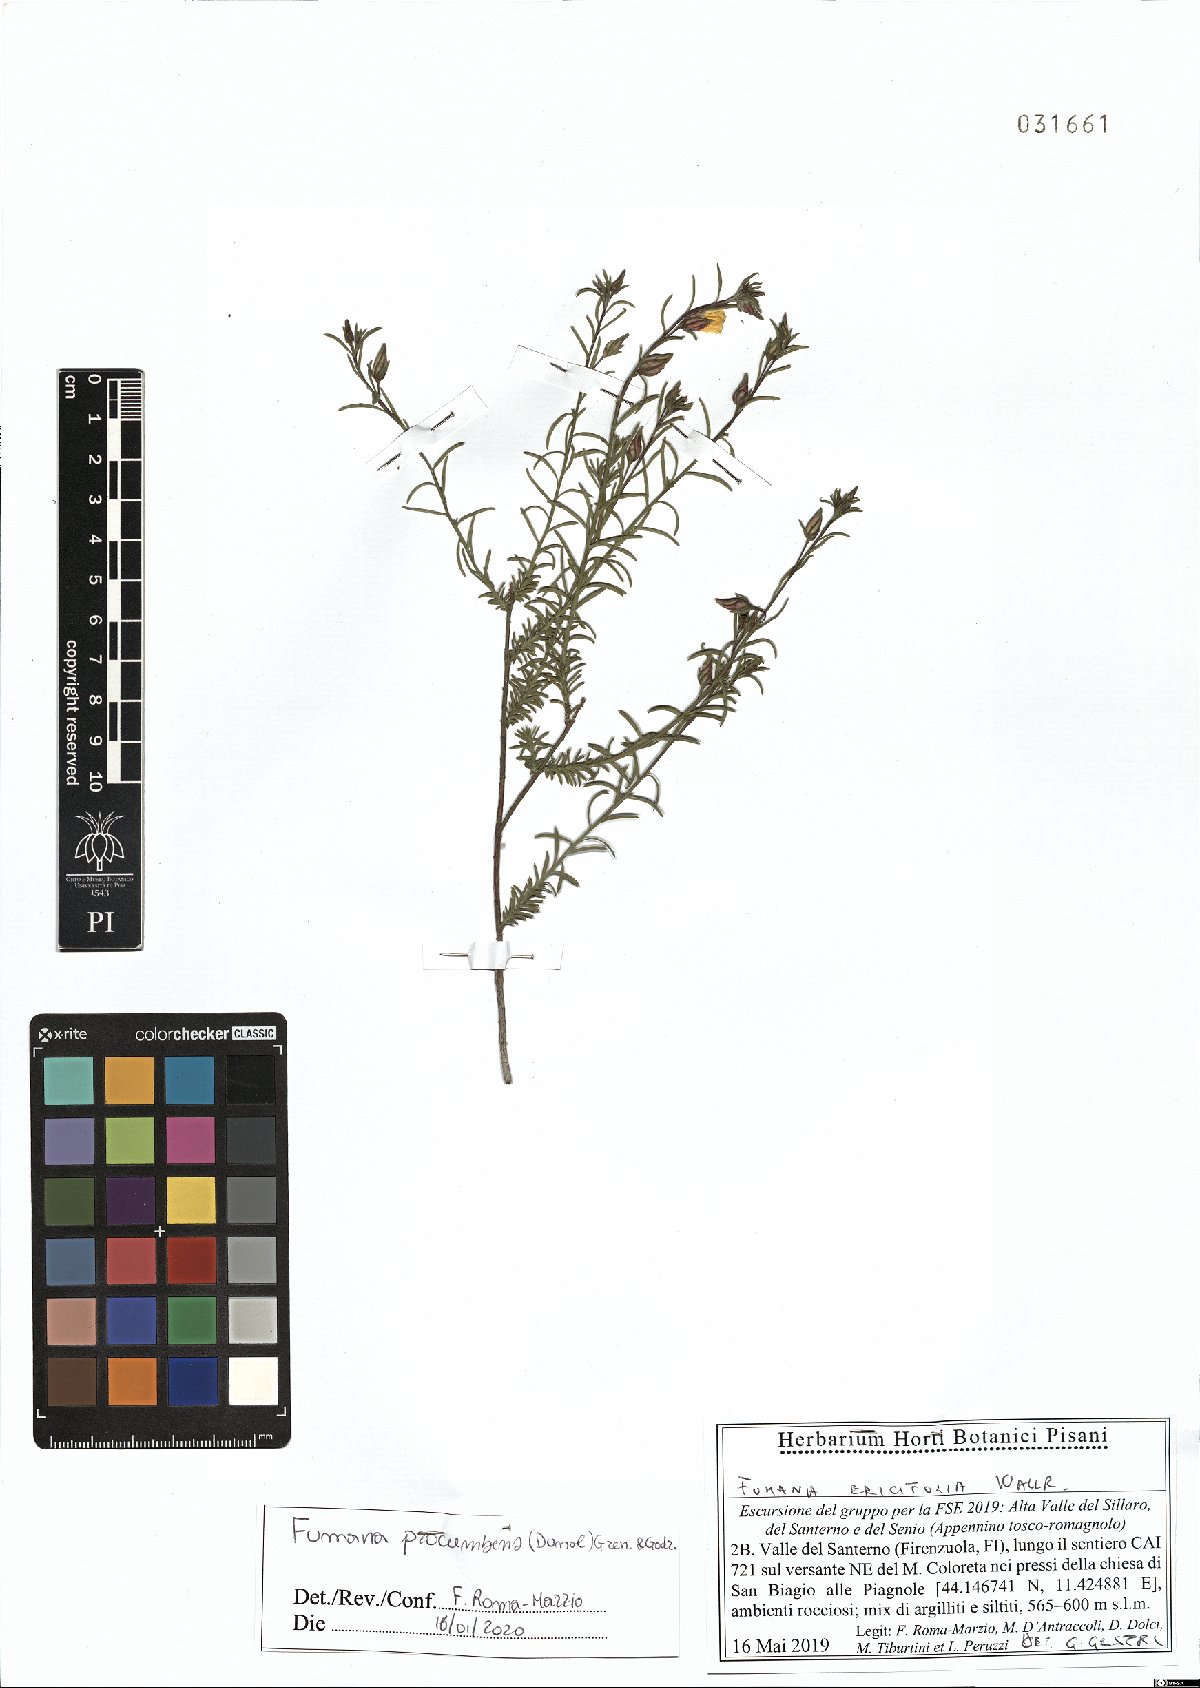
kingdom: Plantae
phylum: Tracheophyta
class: Magnoliopsida
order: Malvales
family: Cistaceae
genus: Fumana
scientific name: Fumana procumbens
